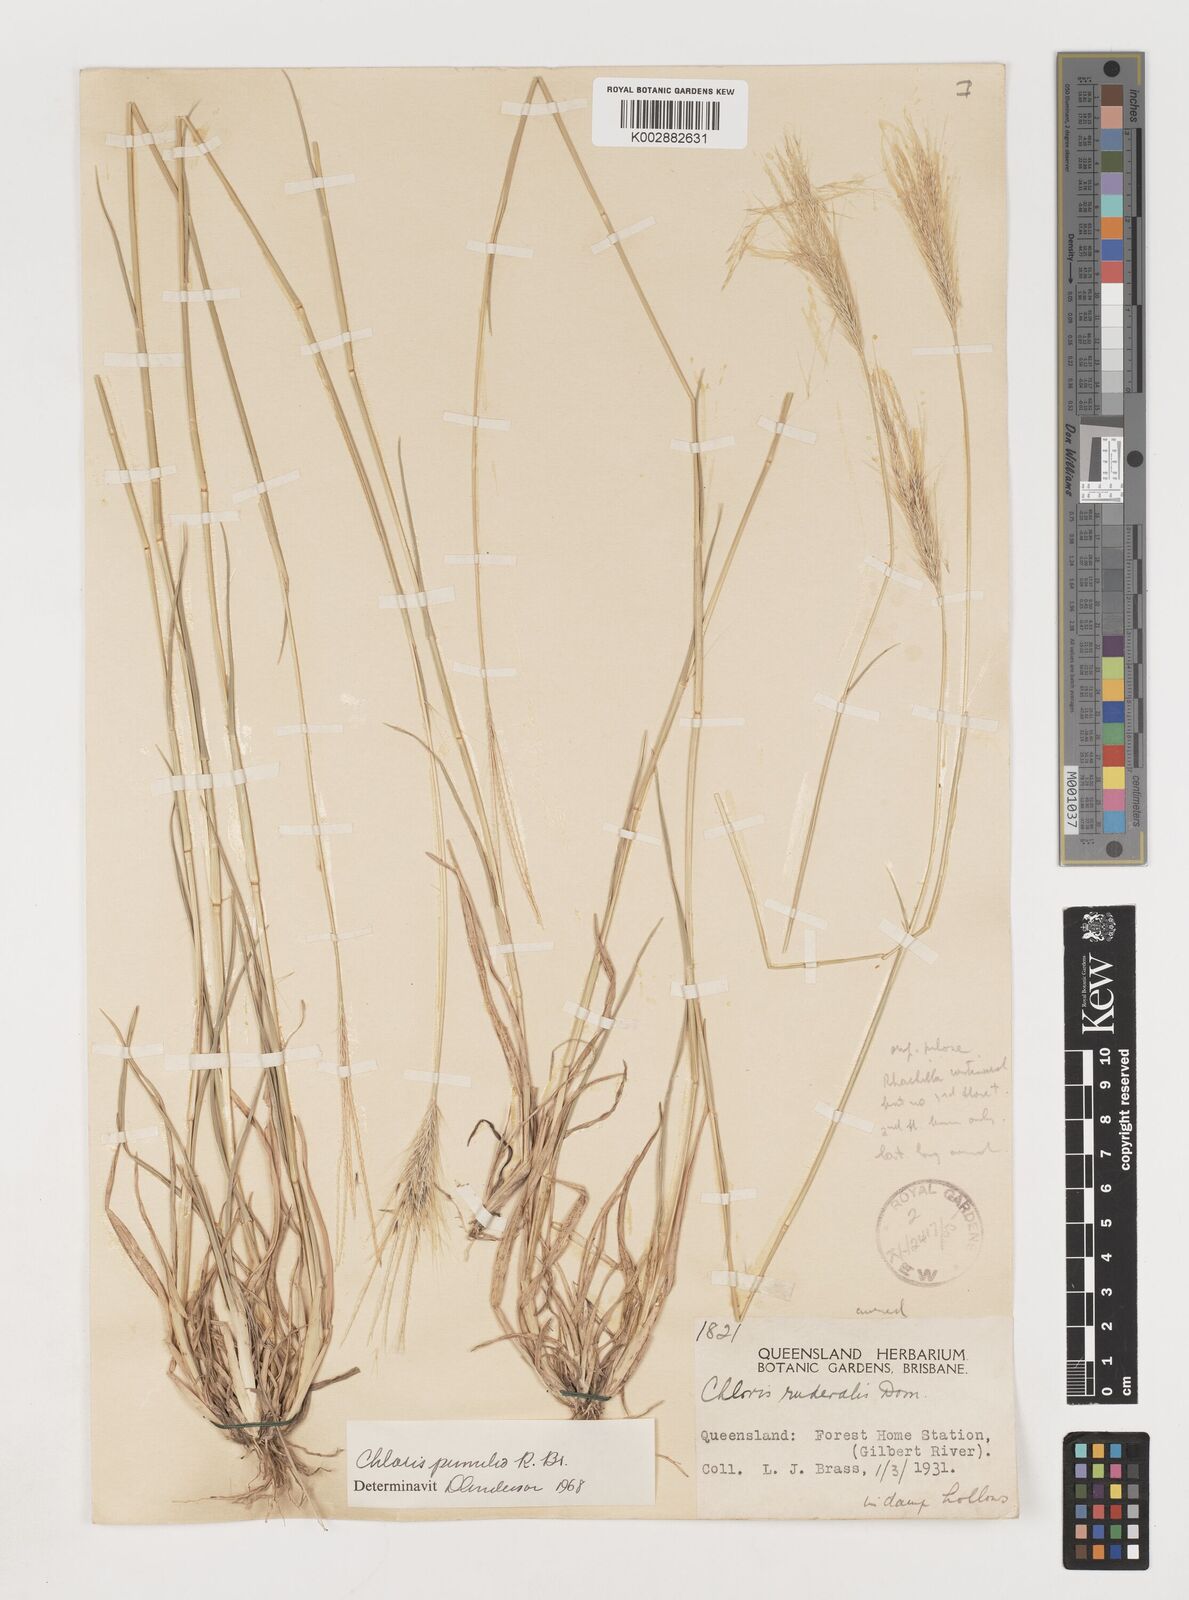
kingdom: Plantae
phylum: Tracheophyta
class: Liliopsida
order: Poales
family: Poaceae
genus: Chloris
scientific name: Chloris pumilio
